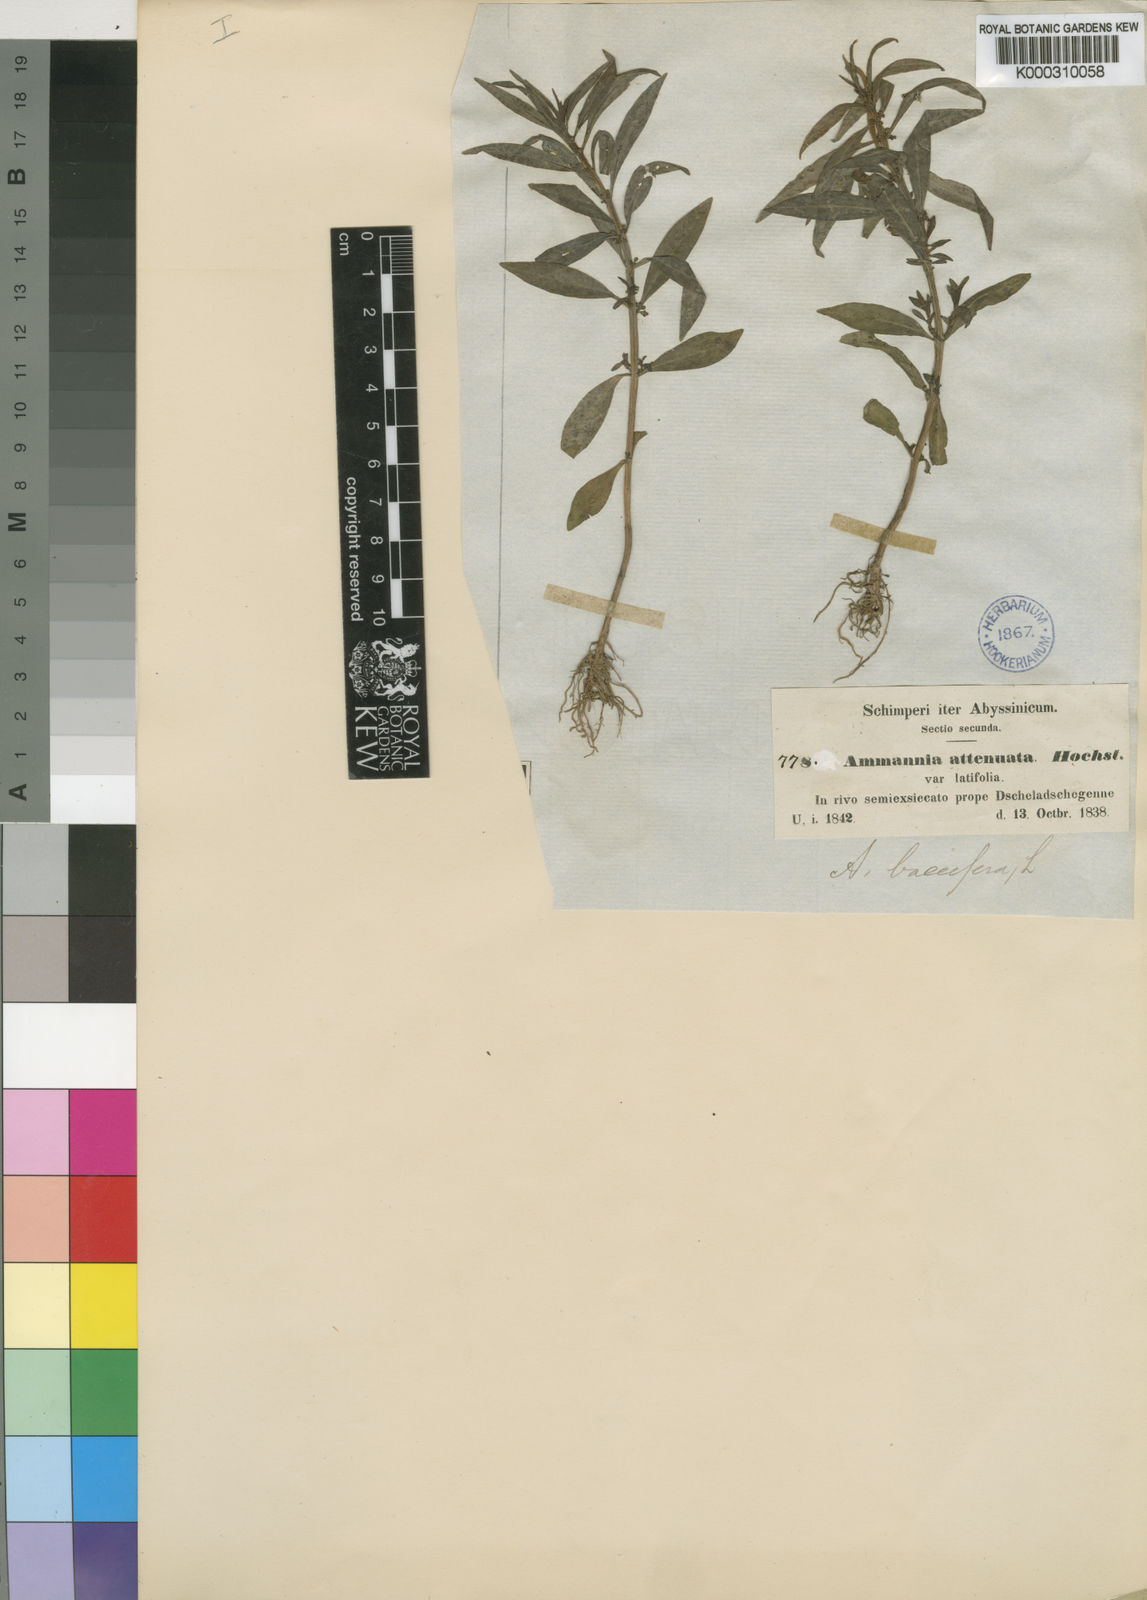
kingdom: Plantae
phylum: Tracheophyta
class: Magnoliopsida
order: Myrtales
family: Lythraceae
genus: Ammannia
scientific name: Ammannia
